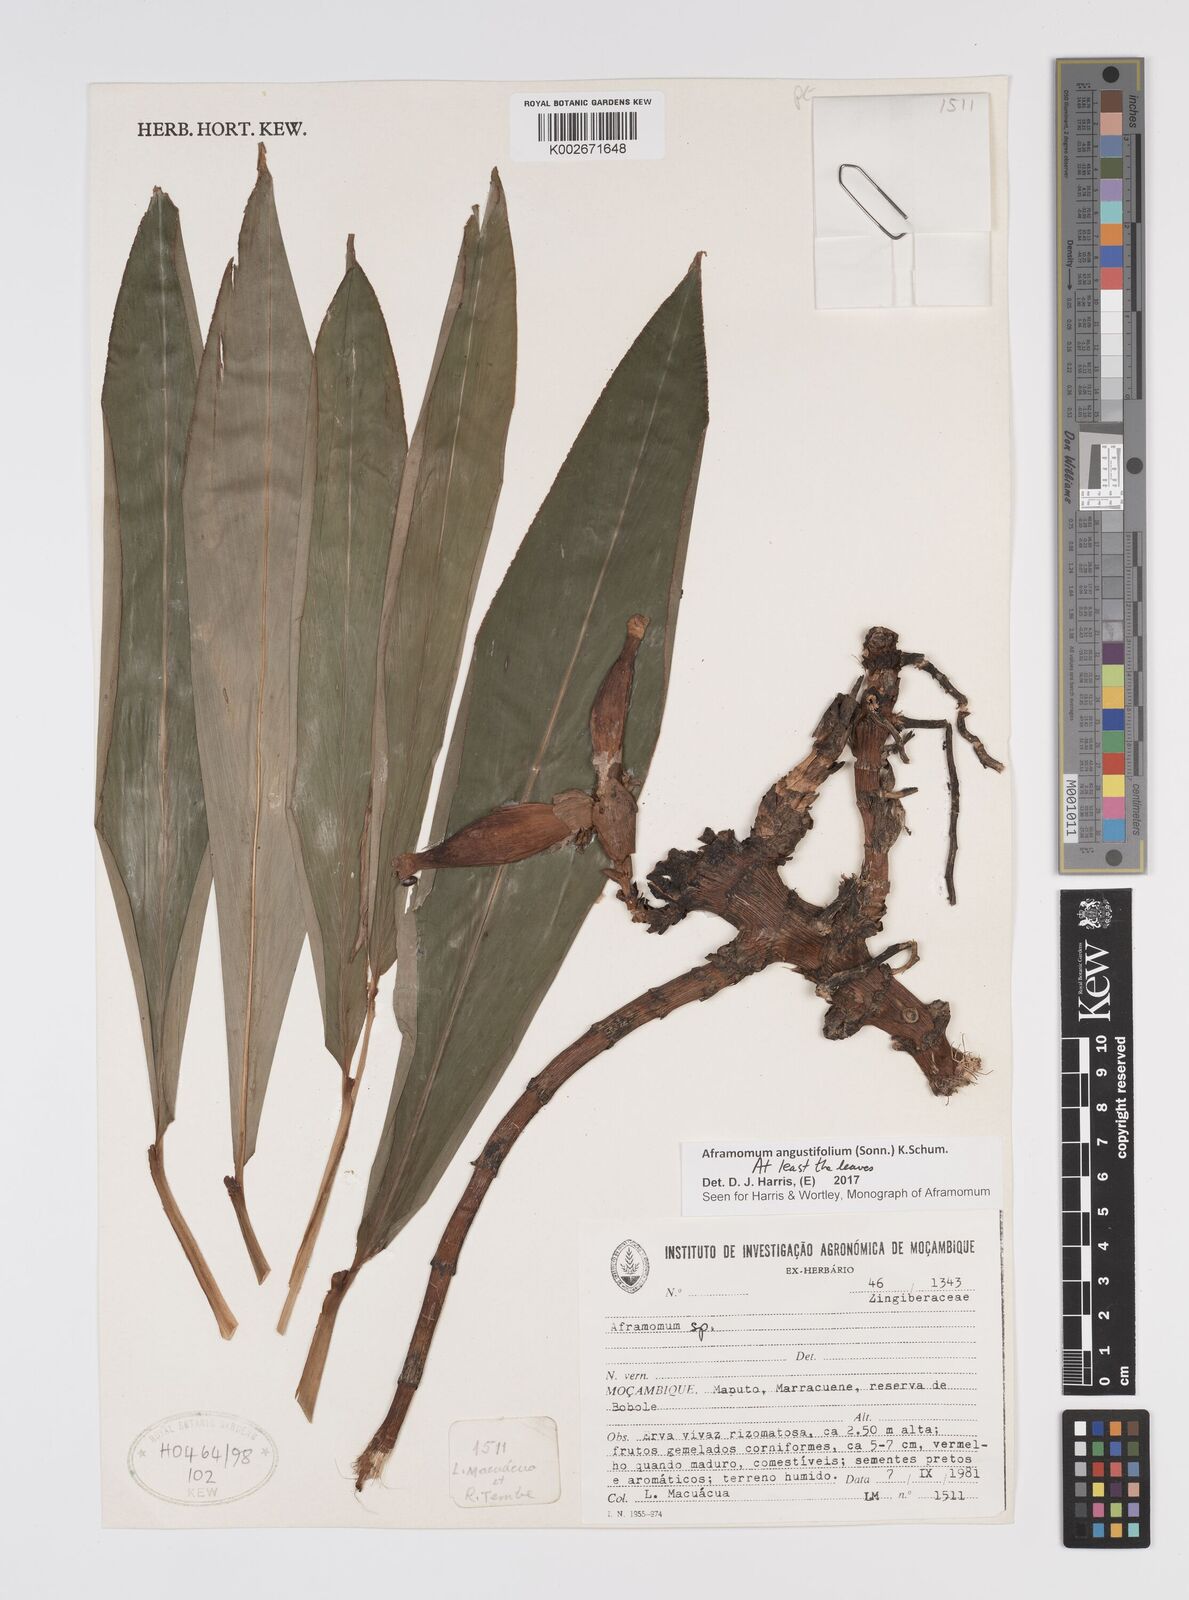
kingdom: Plantae
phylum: Tracheophyta
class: Liliopsida
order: Zingiberales
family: Zingiberaceae
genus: Aframomum
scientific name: Aframomum angustifolium
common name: Guinea grains
